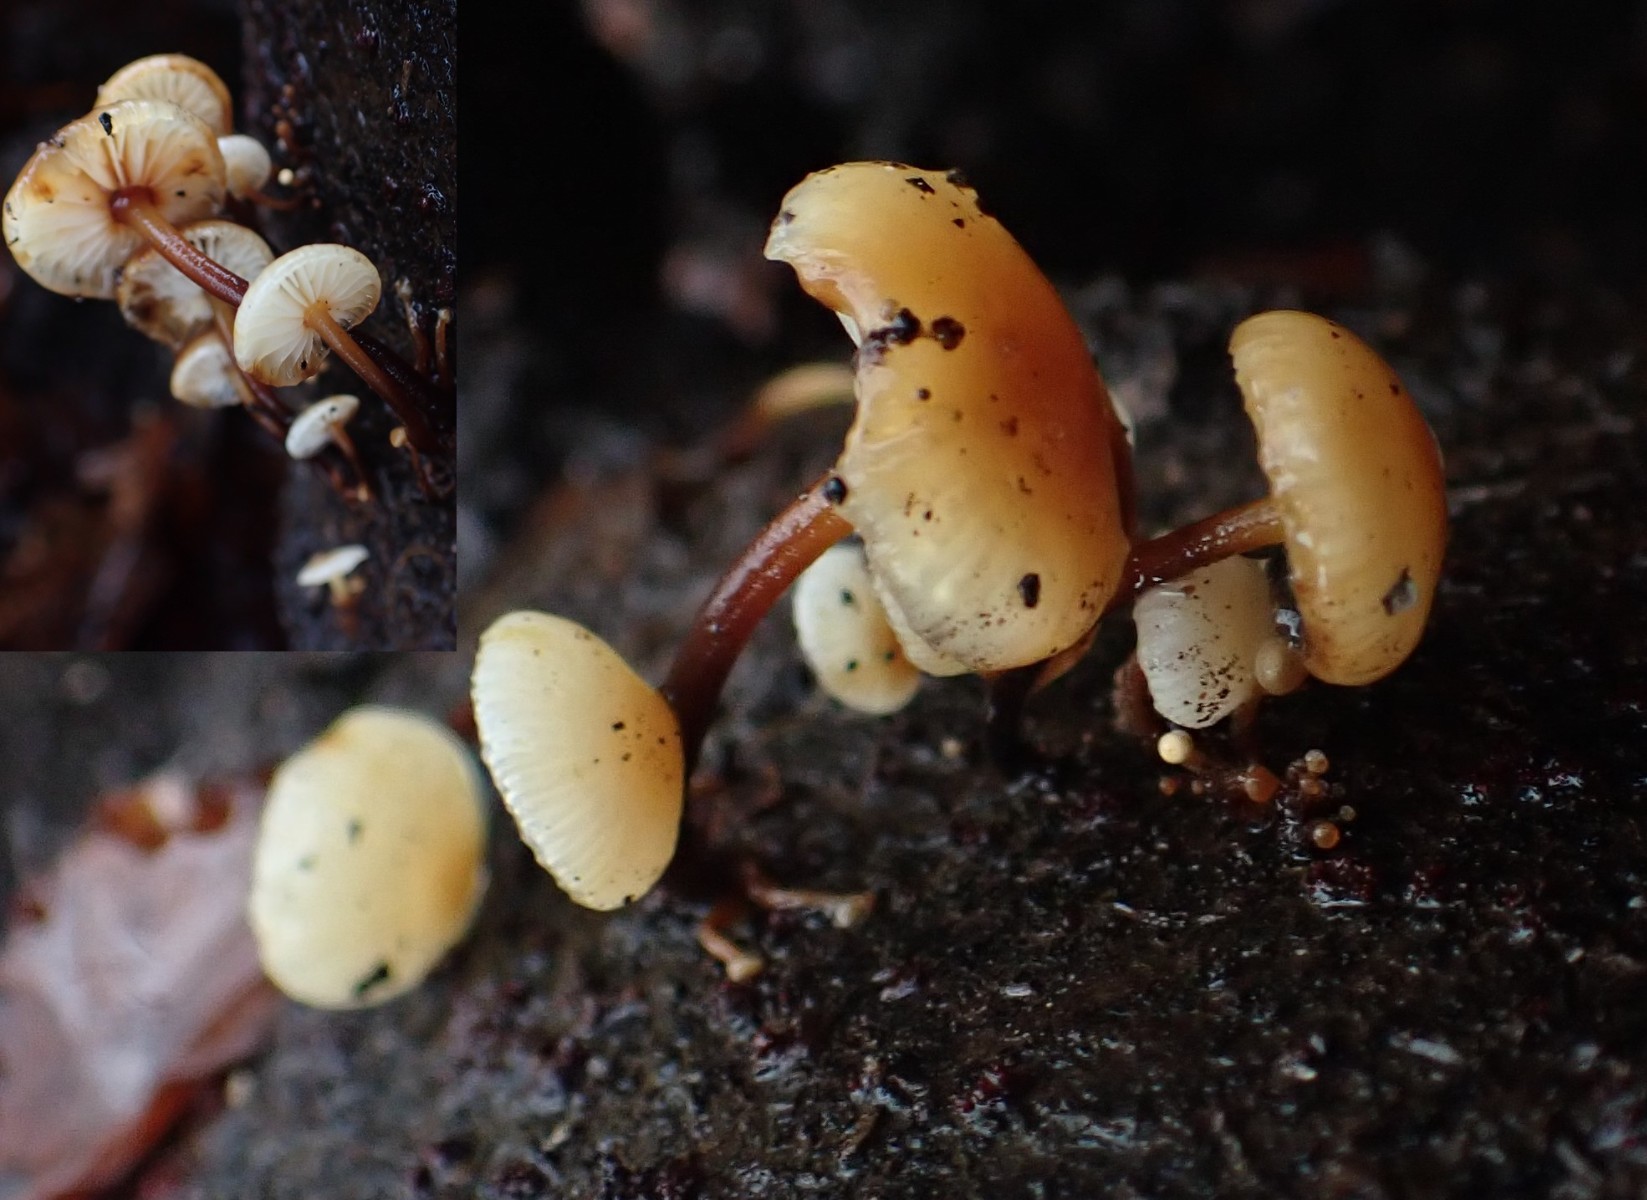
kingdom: Fungi
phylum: Basidiomycota
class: Agaricomycetes
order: Agaricales
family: Physalacriaceae
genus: Flammulina
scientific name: Flammulina velutipes
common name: gul fløjlsfod
